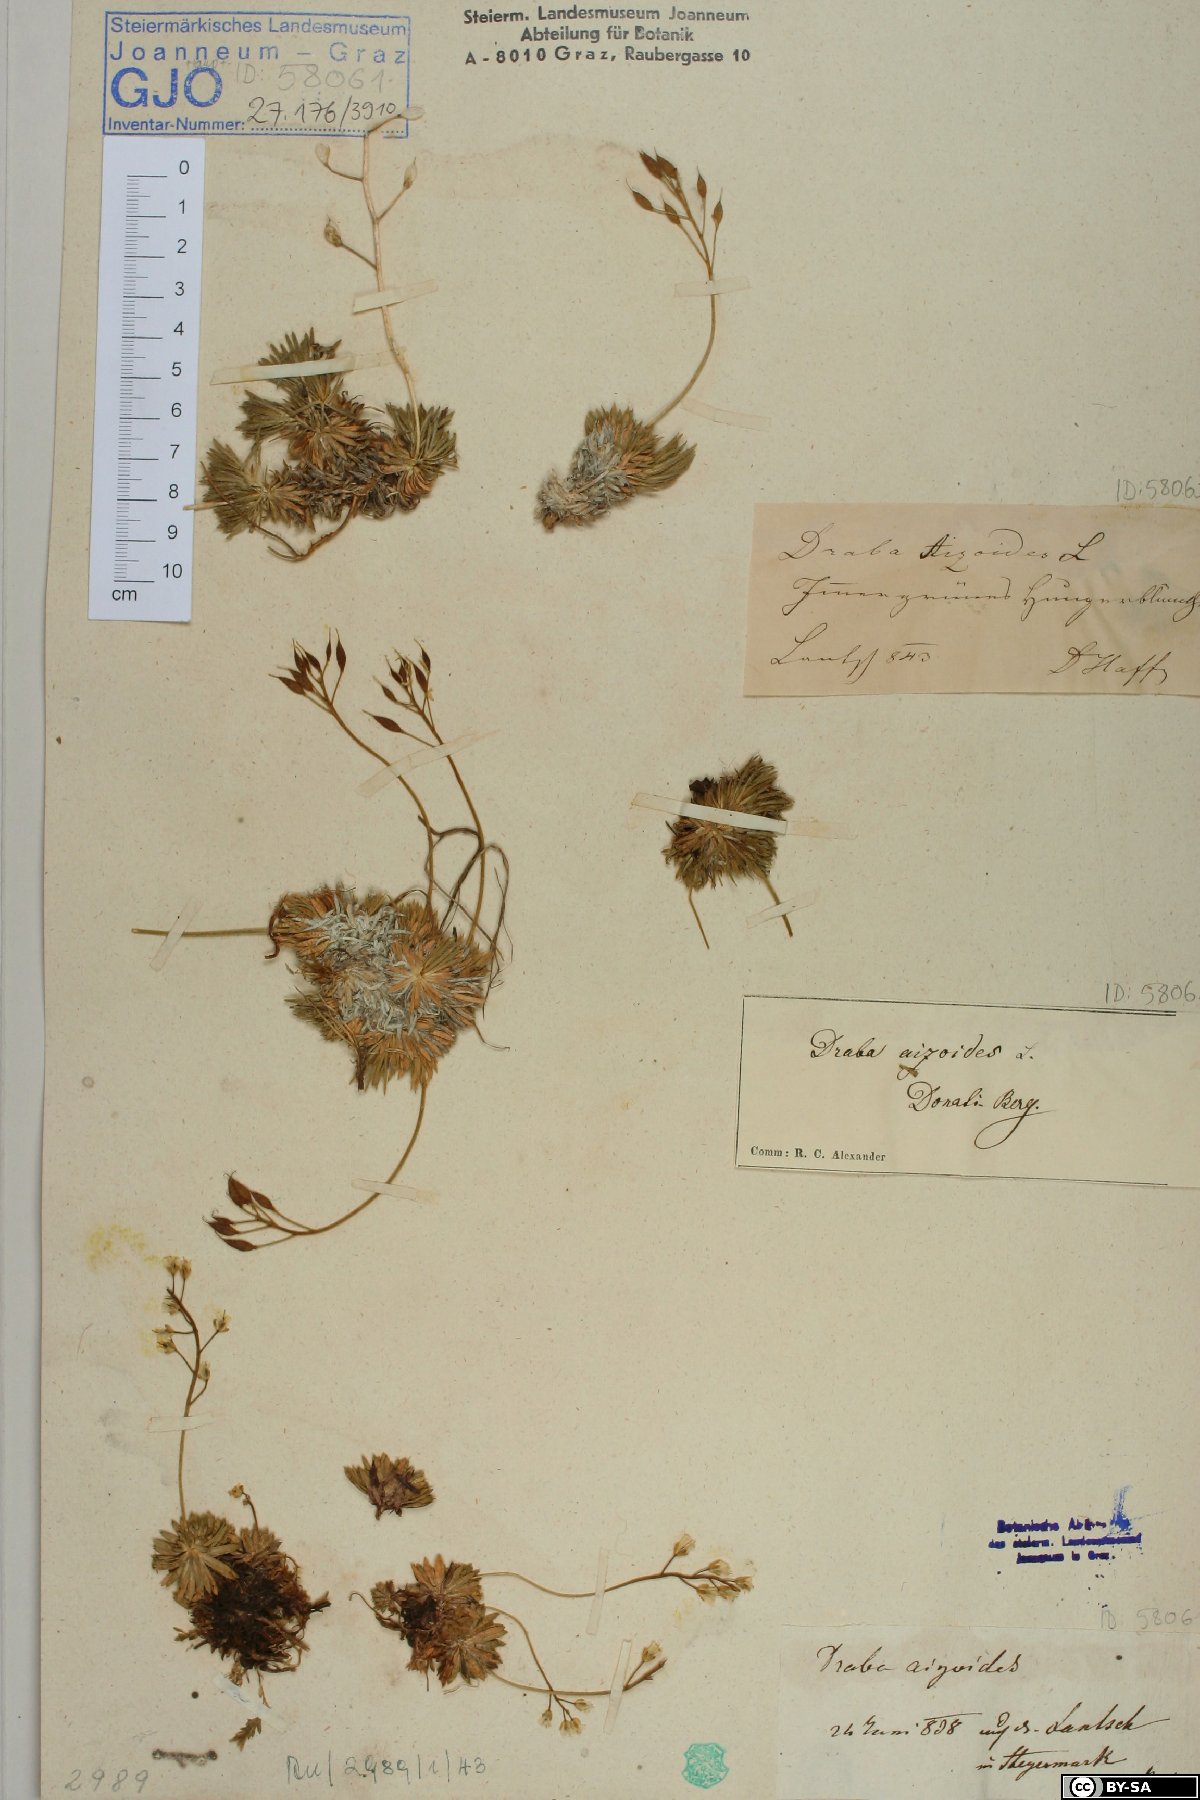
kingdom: Plantae
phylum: Tracheophyta
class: Magnoliopsida
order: Brassicales
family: Brassicaceae
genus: Draba
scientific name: Draba aizoides
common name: Yellow whitlowgrass
